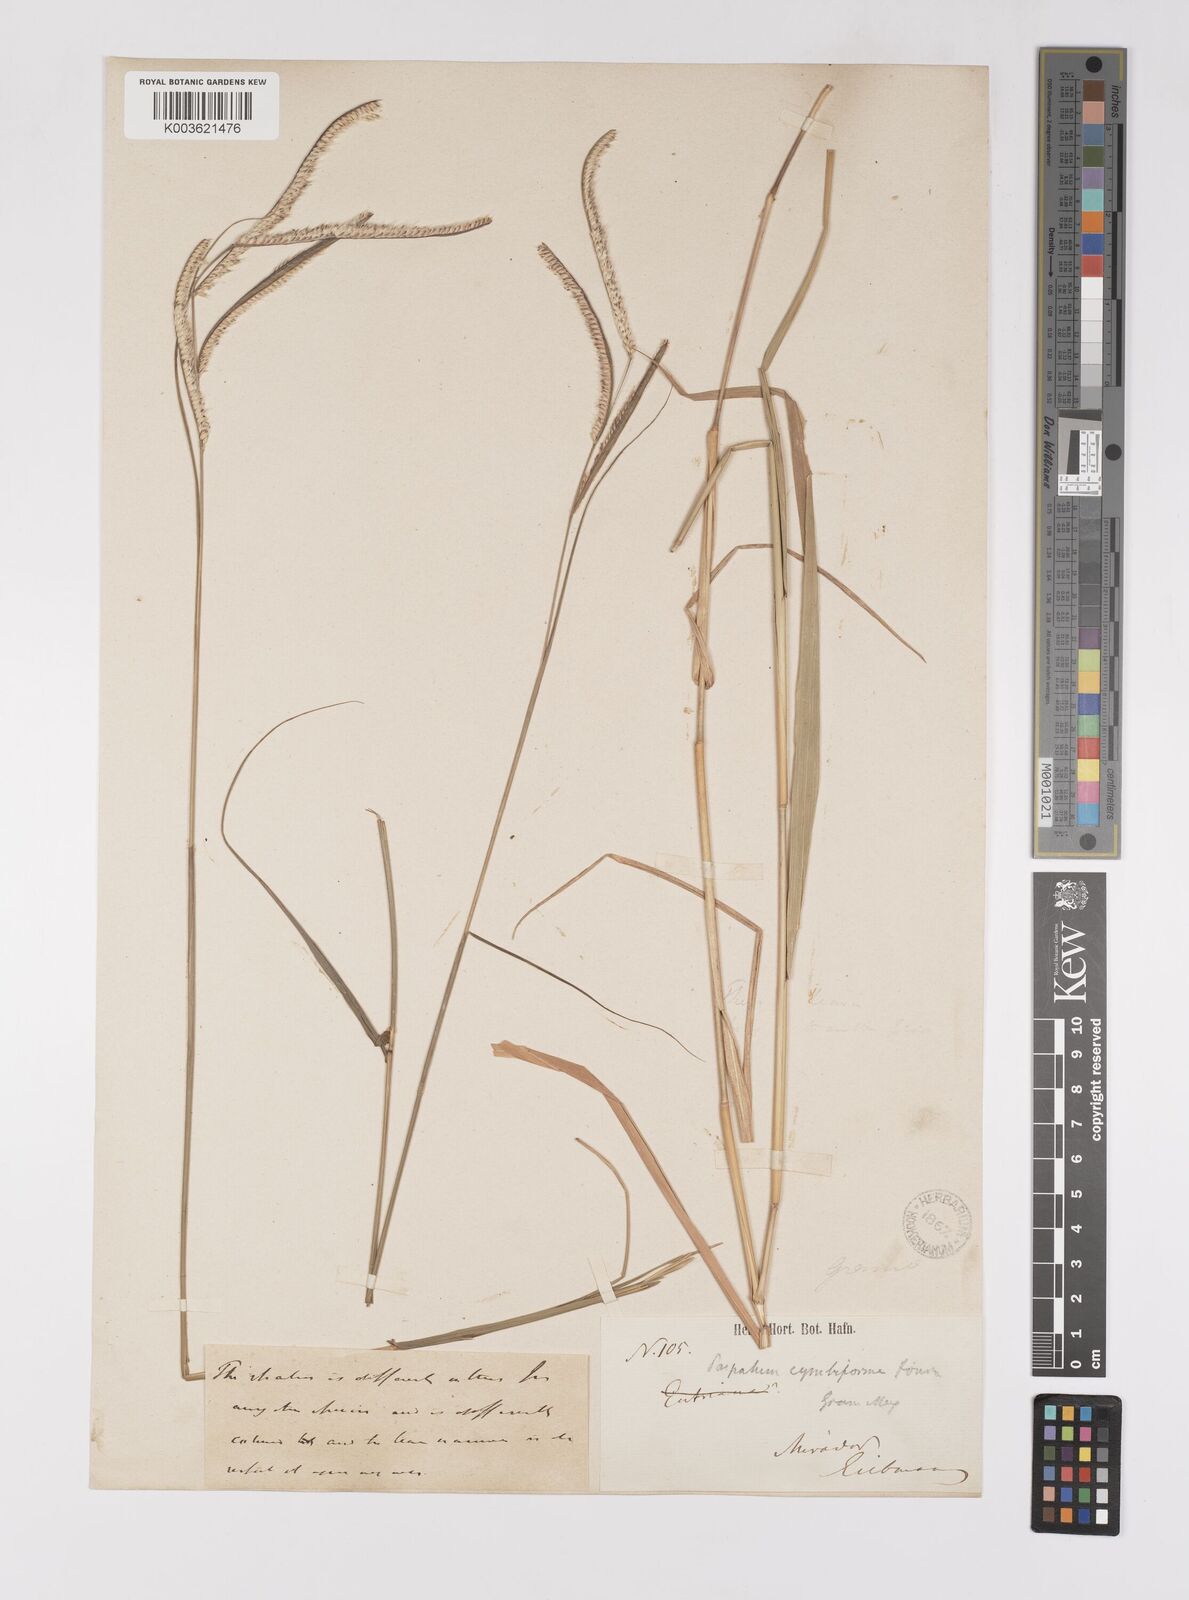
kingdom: Plantae
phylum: Tracheophyta
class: Liliopsida
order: Poales
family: Poaceae
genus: Paspalum
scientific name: Paspalum cymbiforme
